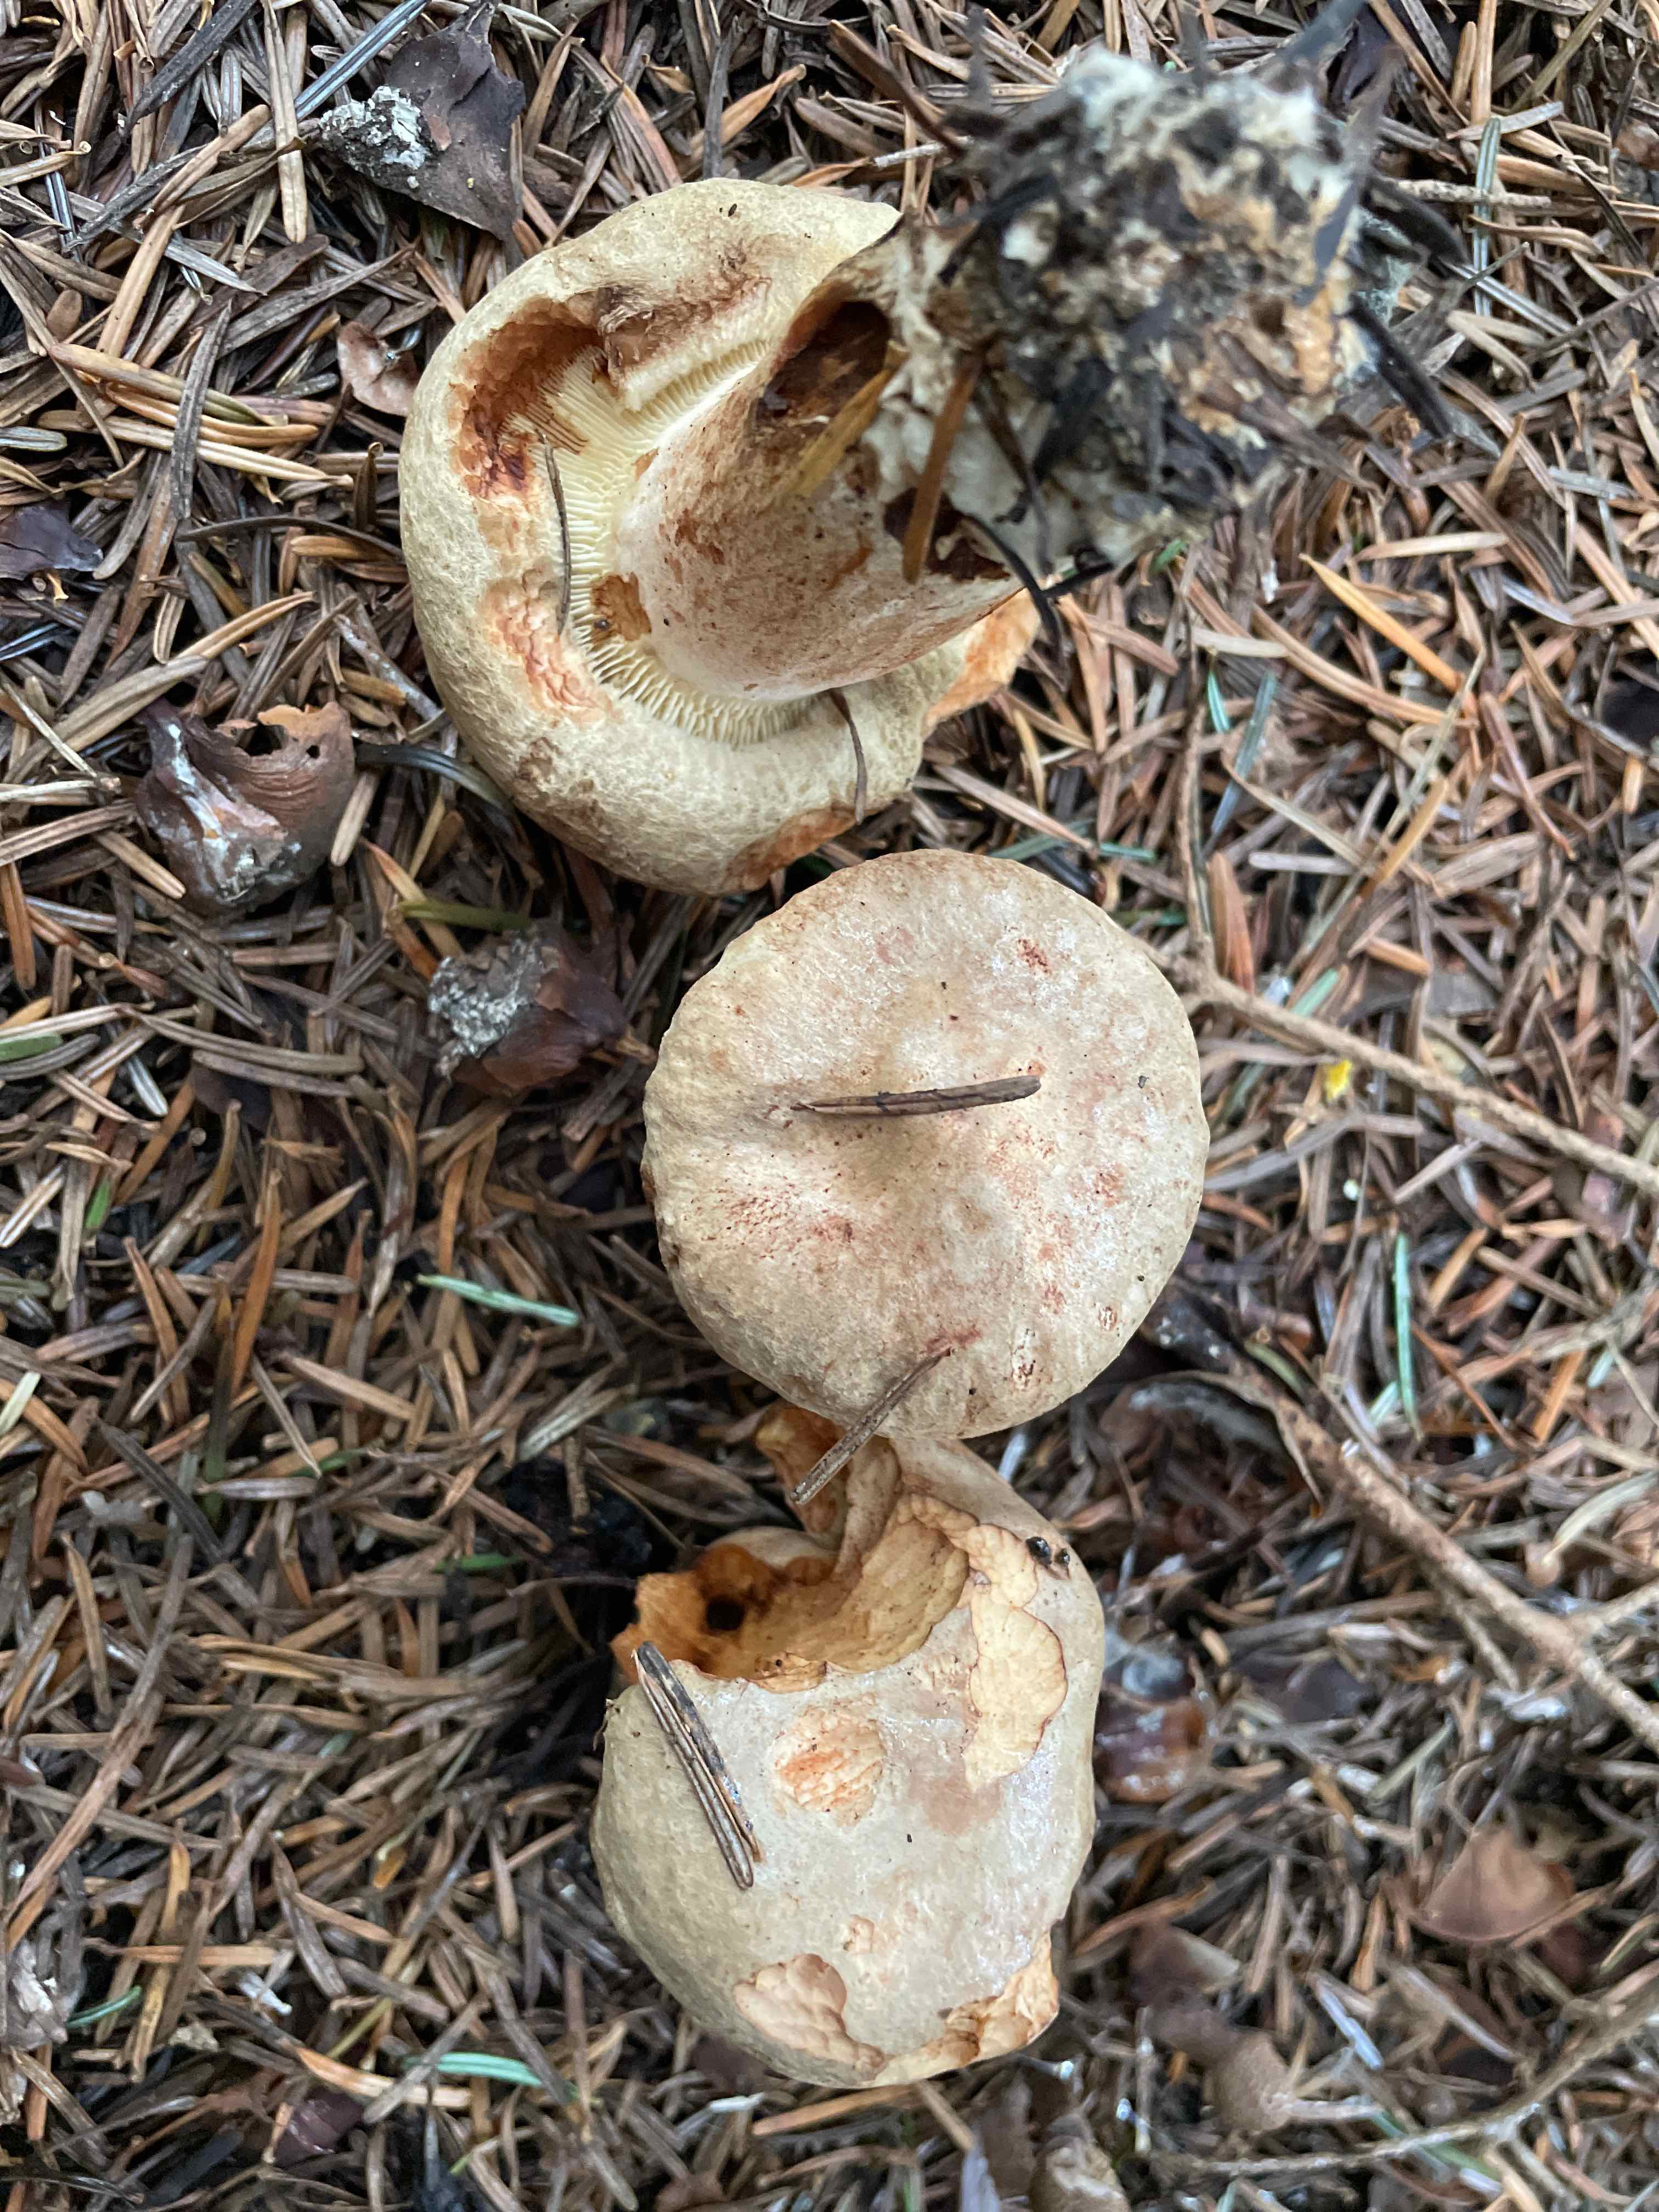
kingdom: Fungi
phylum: Basidiomycota
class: Agaricomycetes
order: Boletales
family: Paxillaceae
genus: Paxillus
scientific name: Paxillus involutus
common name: almindelig netbladhat
